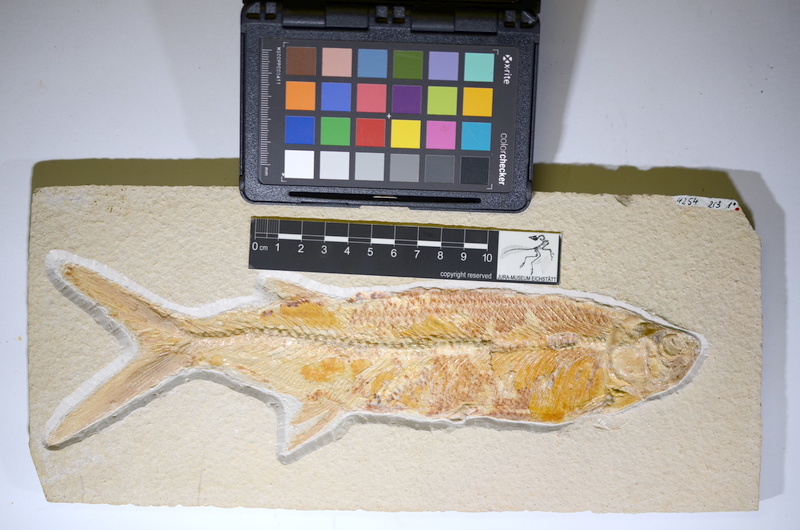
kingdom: Animalia
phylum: Chordata
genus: Thrissops
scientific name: Thrissops formosus
